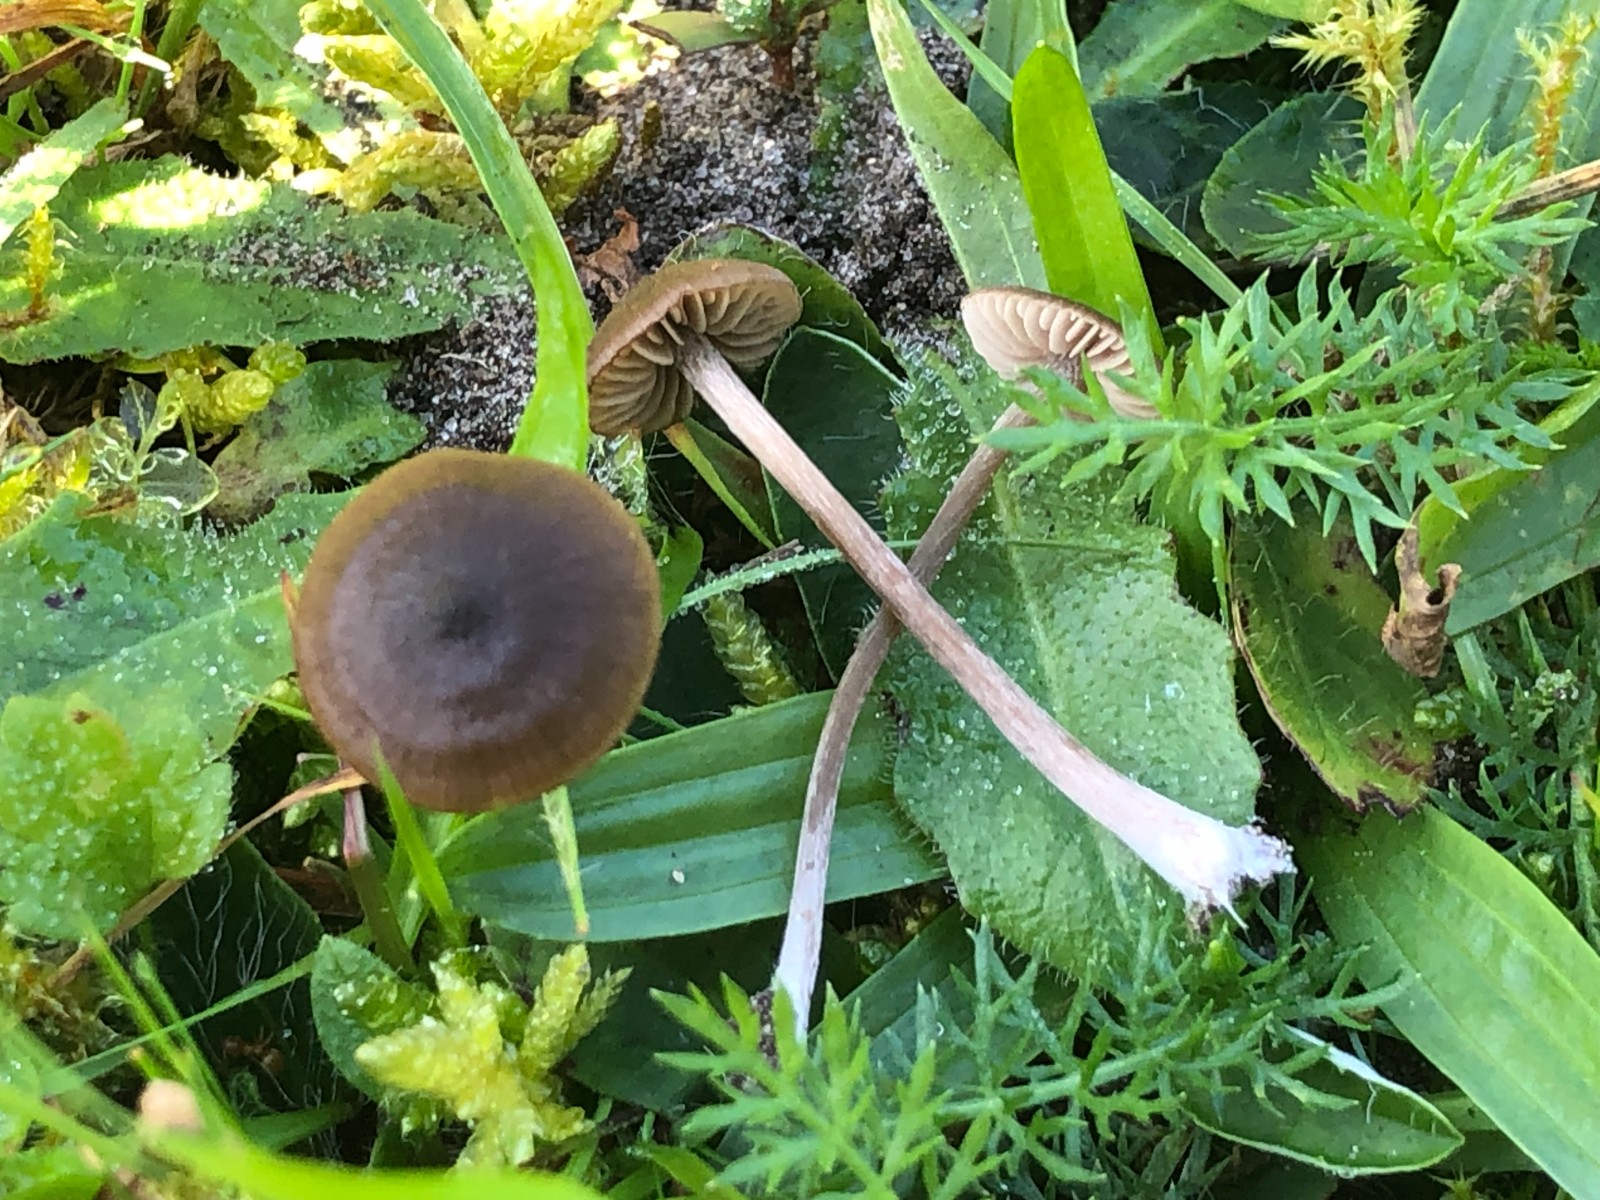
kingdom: Fungi
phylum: Basidiomycota
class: Agaricomycetes
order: Agaricales
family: Entolomataceae
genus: Entoloma
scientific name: Entoloma clandestinum
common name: tykbladet rødblad
